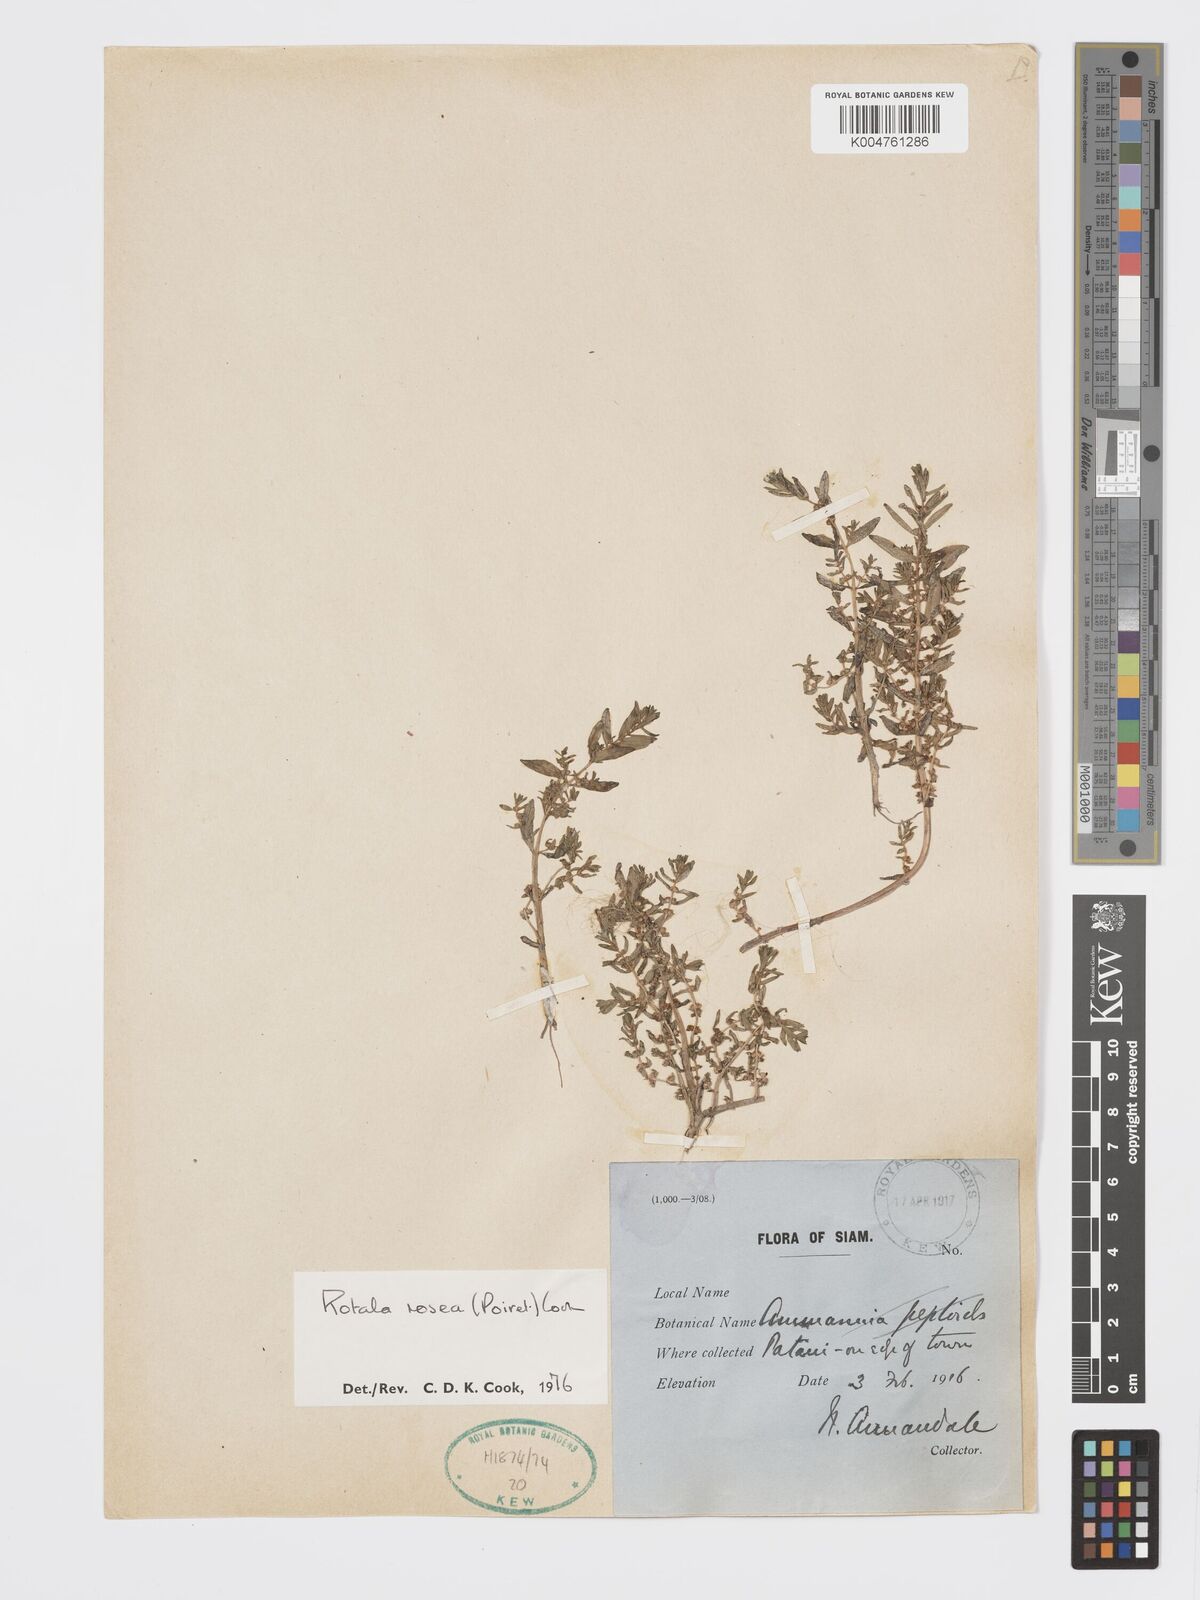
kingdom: Plantae
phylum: Tracheophyta
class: Magnoliopsida
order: Myrtales
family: Lythraceae
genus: Rotala
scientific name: Rotala rosea
